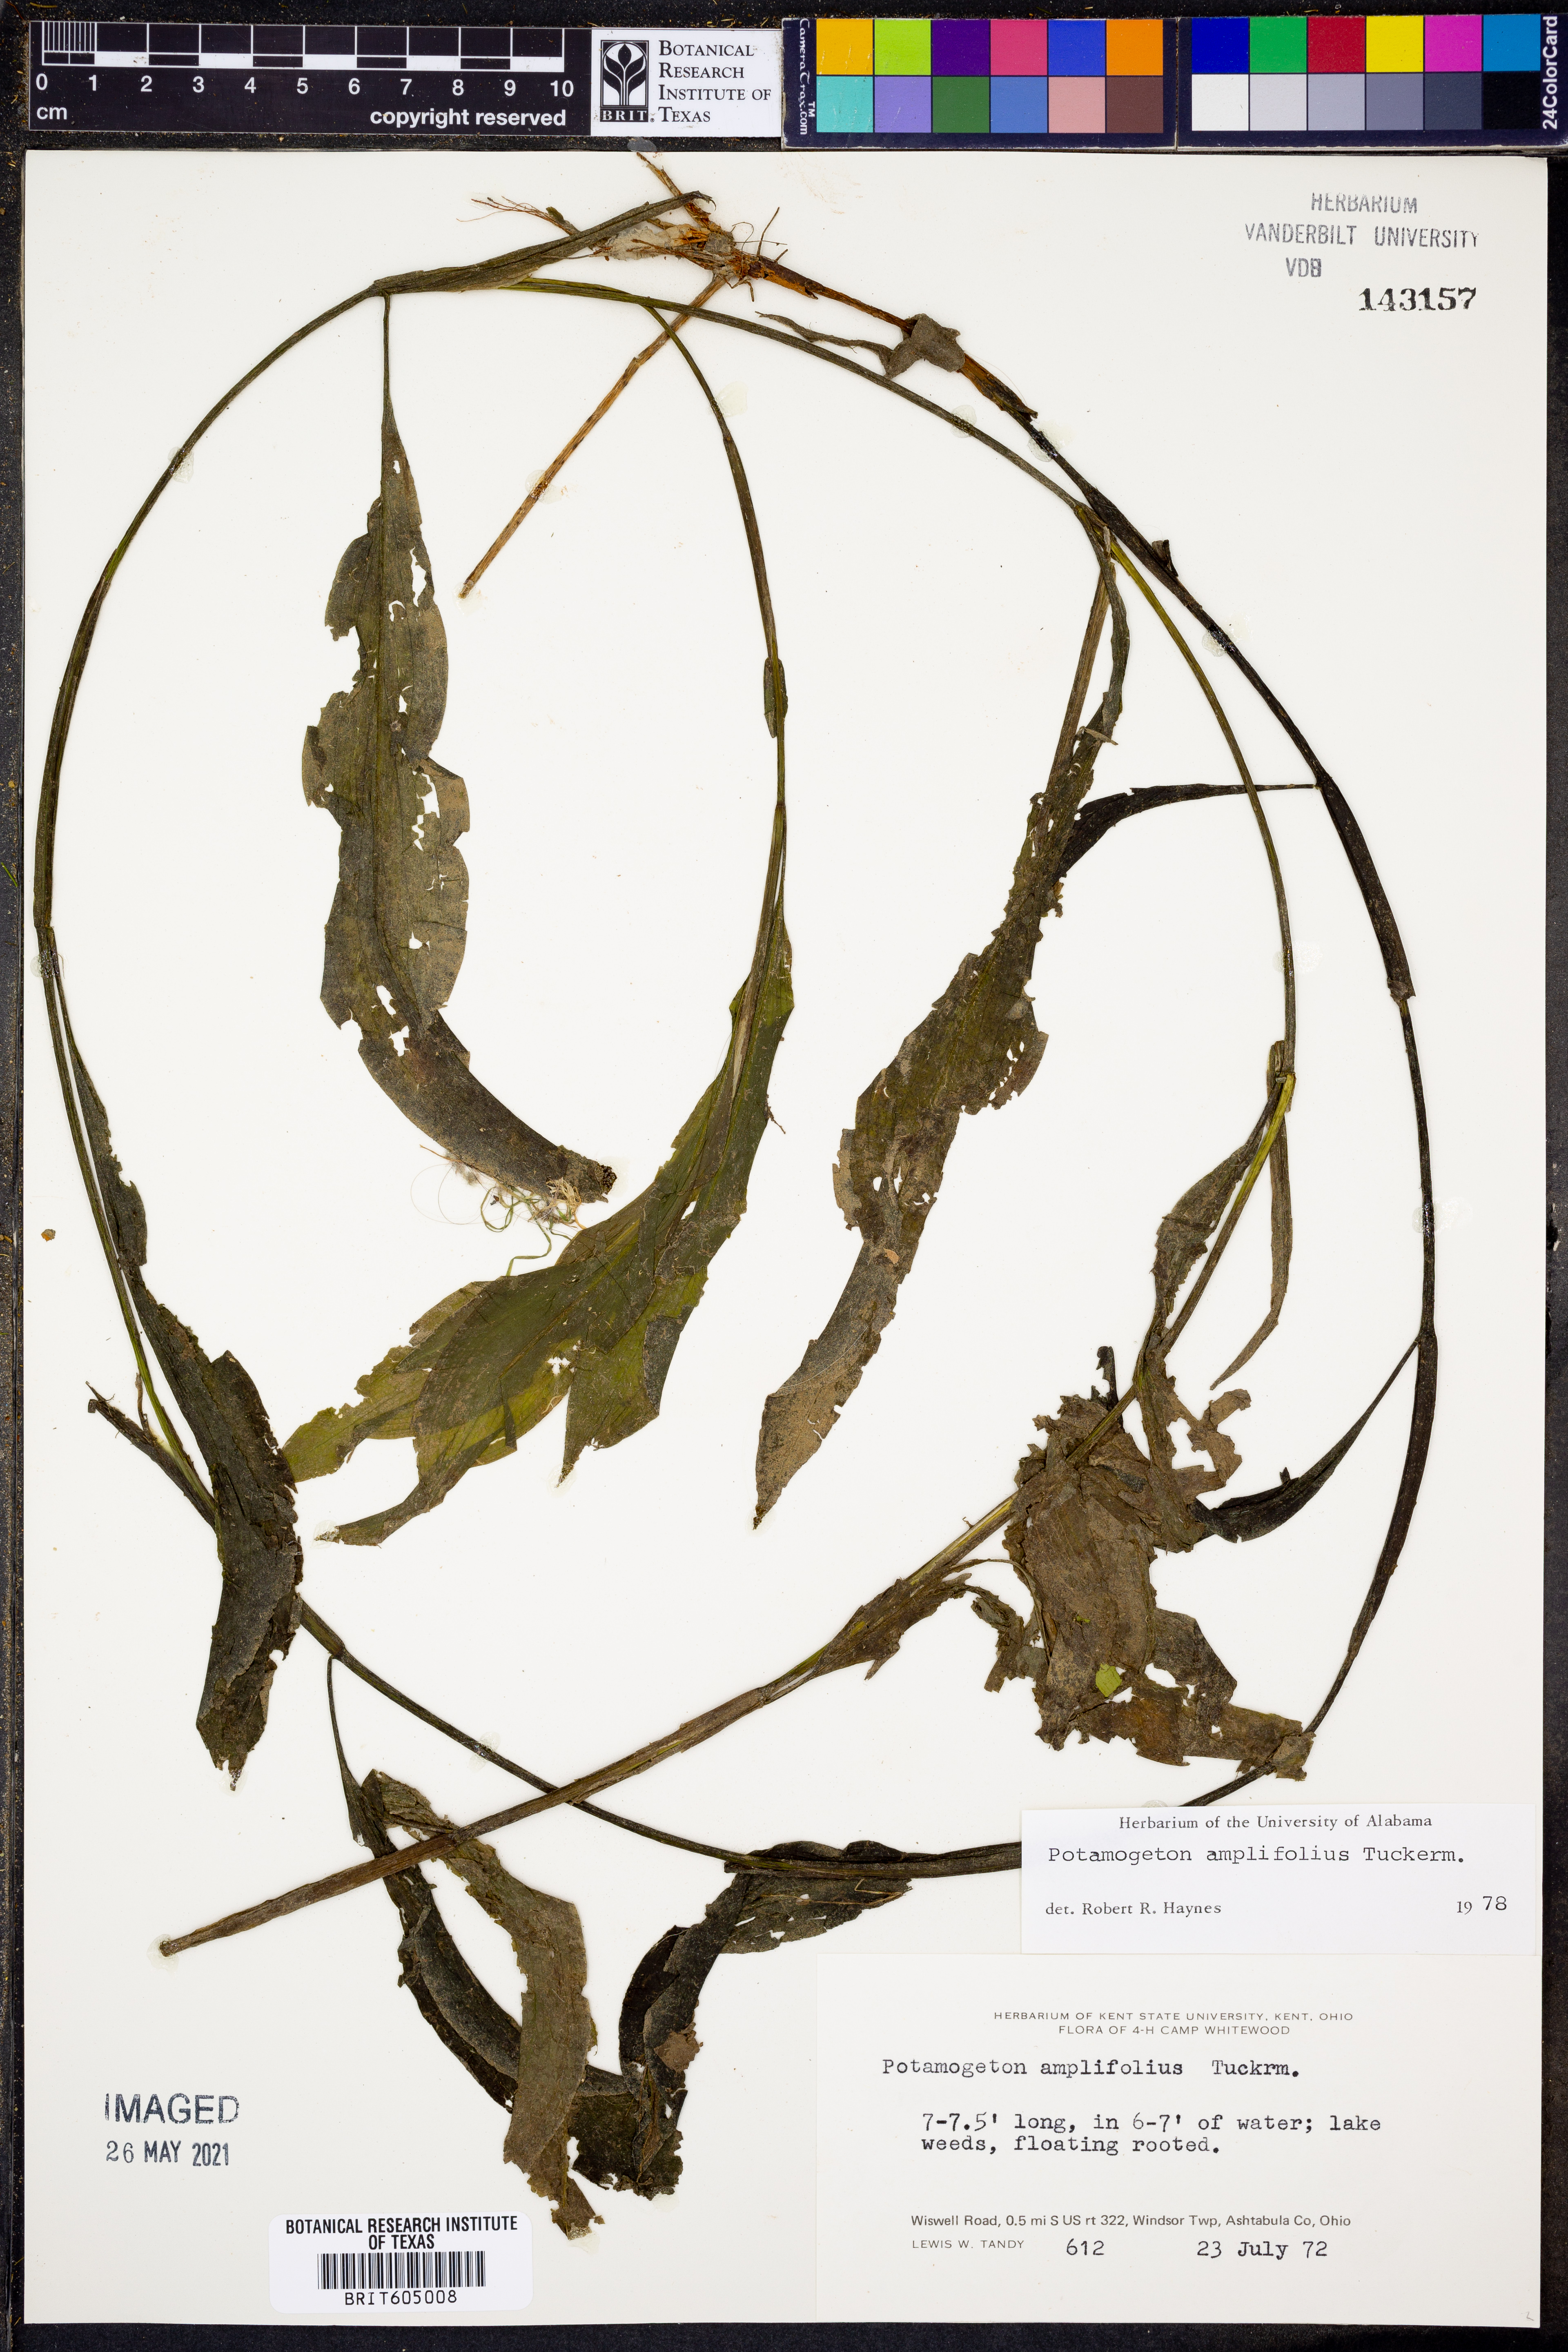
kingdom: Plantae
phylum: Tracheophyta
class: Liliopsida
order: Alismatales
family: Potamogetonaceae
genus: Potamogeton
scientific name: Potamogeton amplifolius
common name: Broad-leaved pondweed
